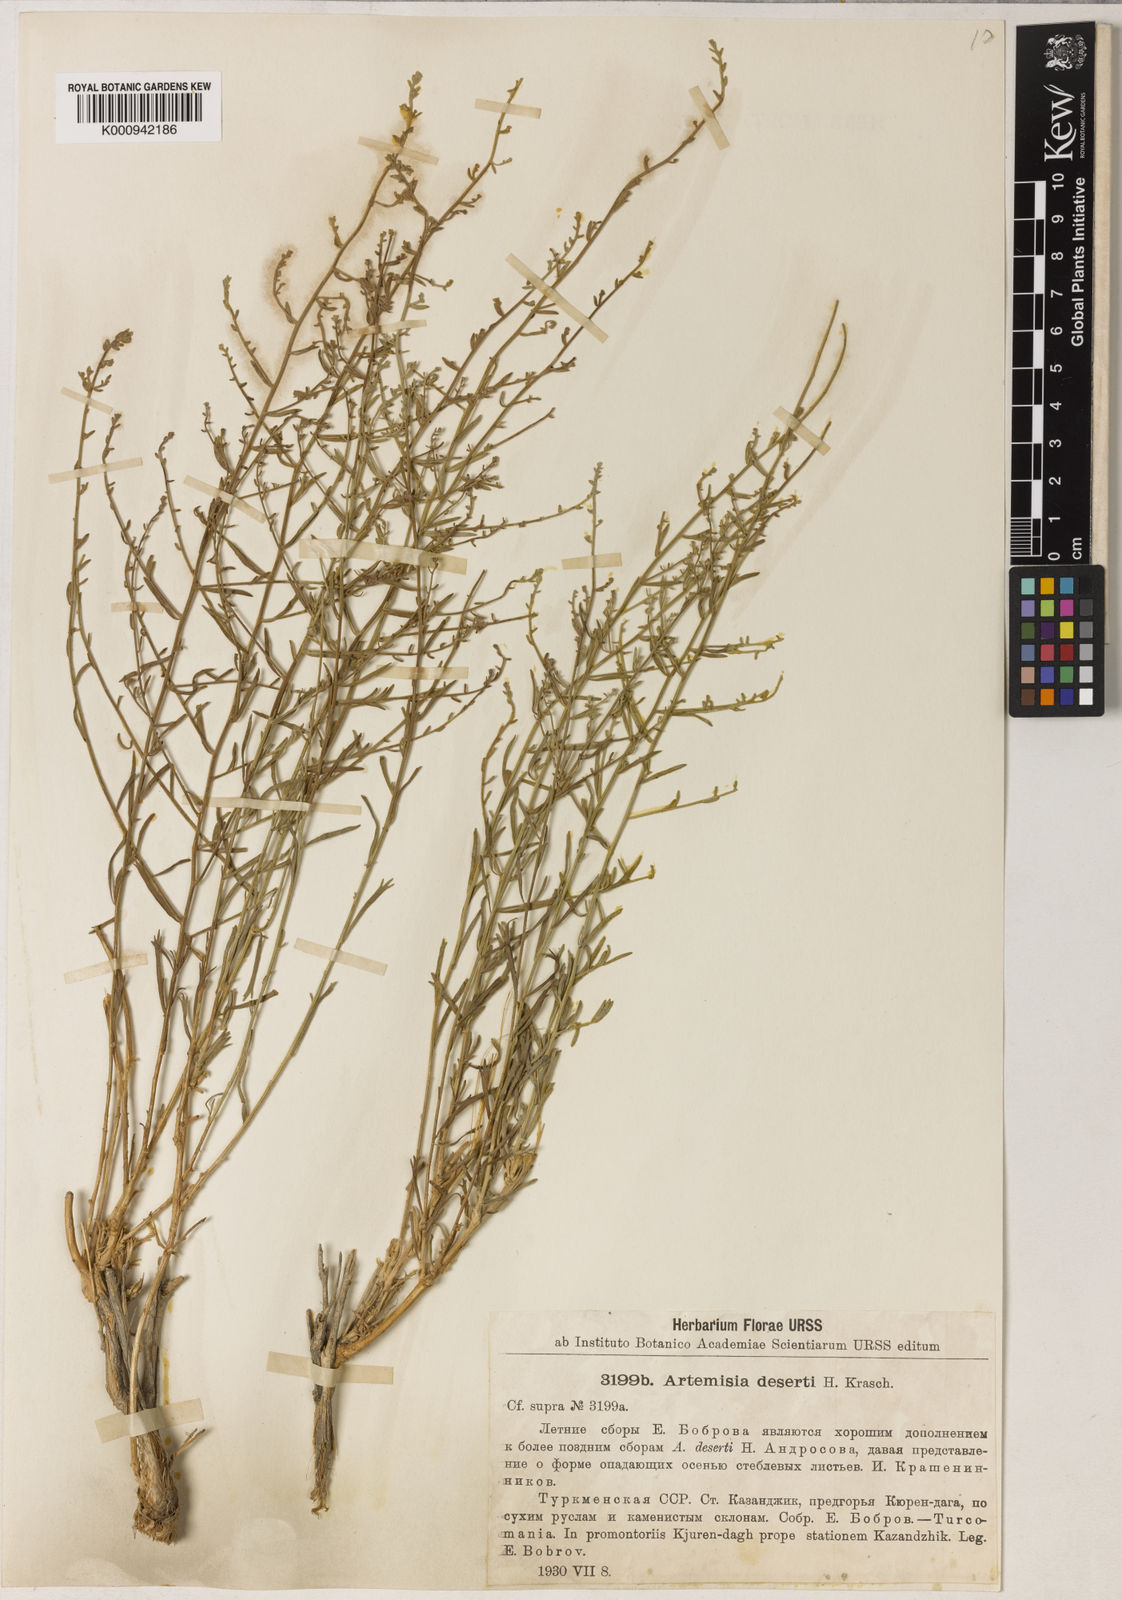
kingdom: Plantae
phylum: Tracheophyta
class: Magnoliopsida
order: Asterales
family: Asteraceae
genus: Artemisia
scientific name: Artemisia deserti
